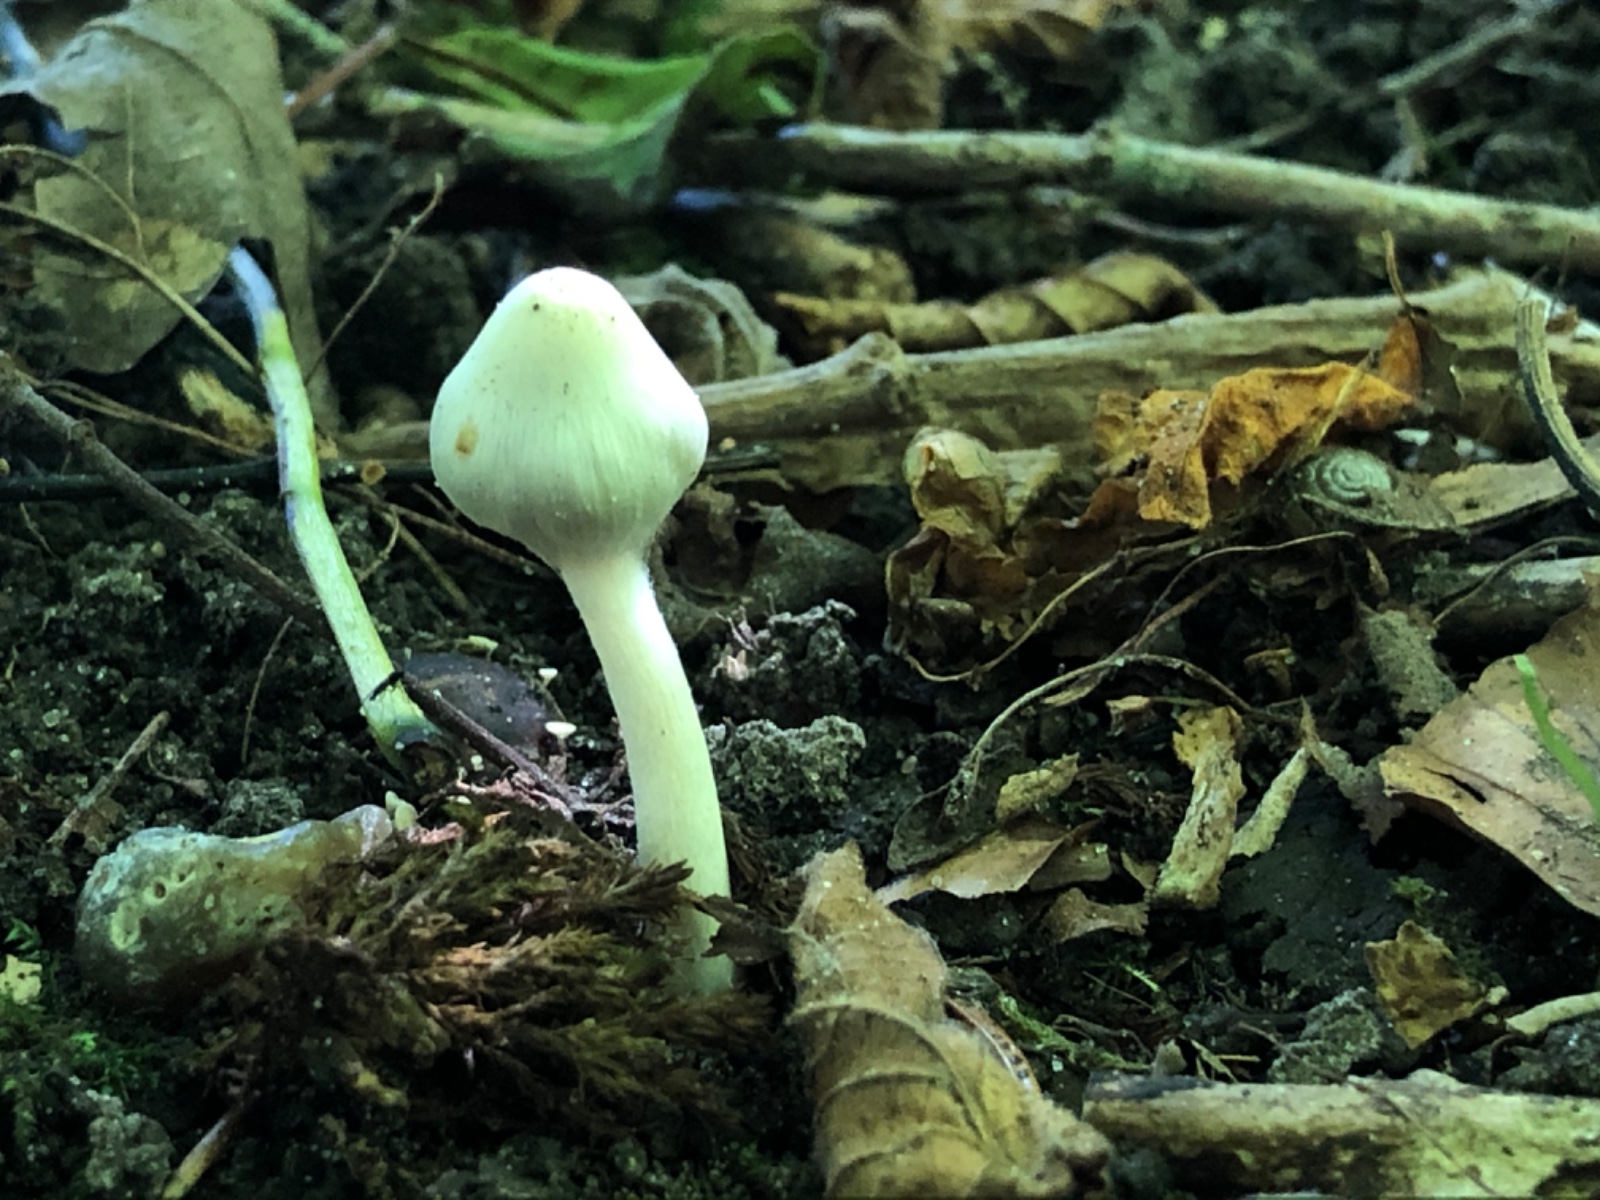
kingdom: Fungi
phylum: Basidiomycota
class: Agaricomycetes
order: Agaricales
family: Inocybaceae
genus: Inocybe
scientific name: Inocybe
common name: almindelig trævlhat
